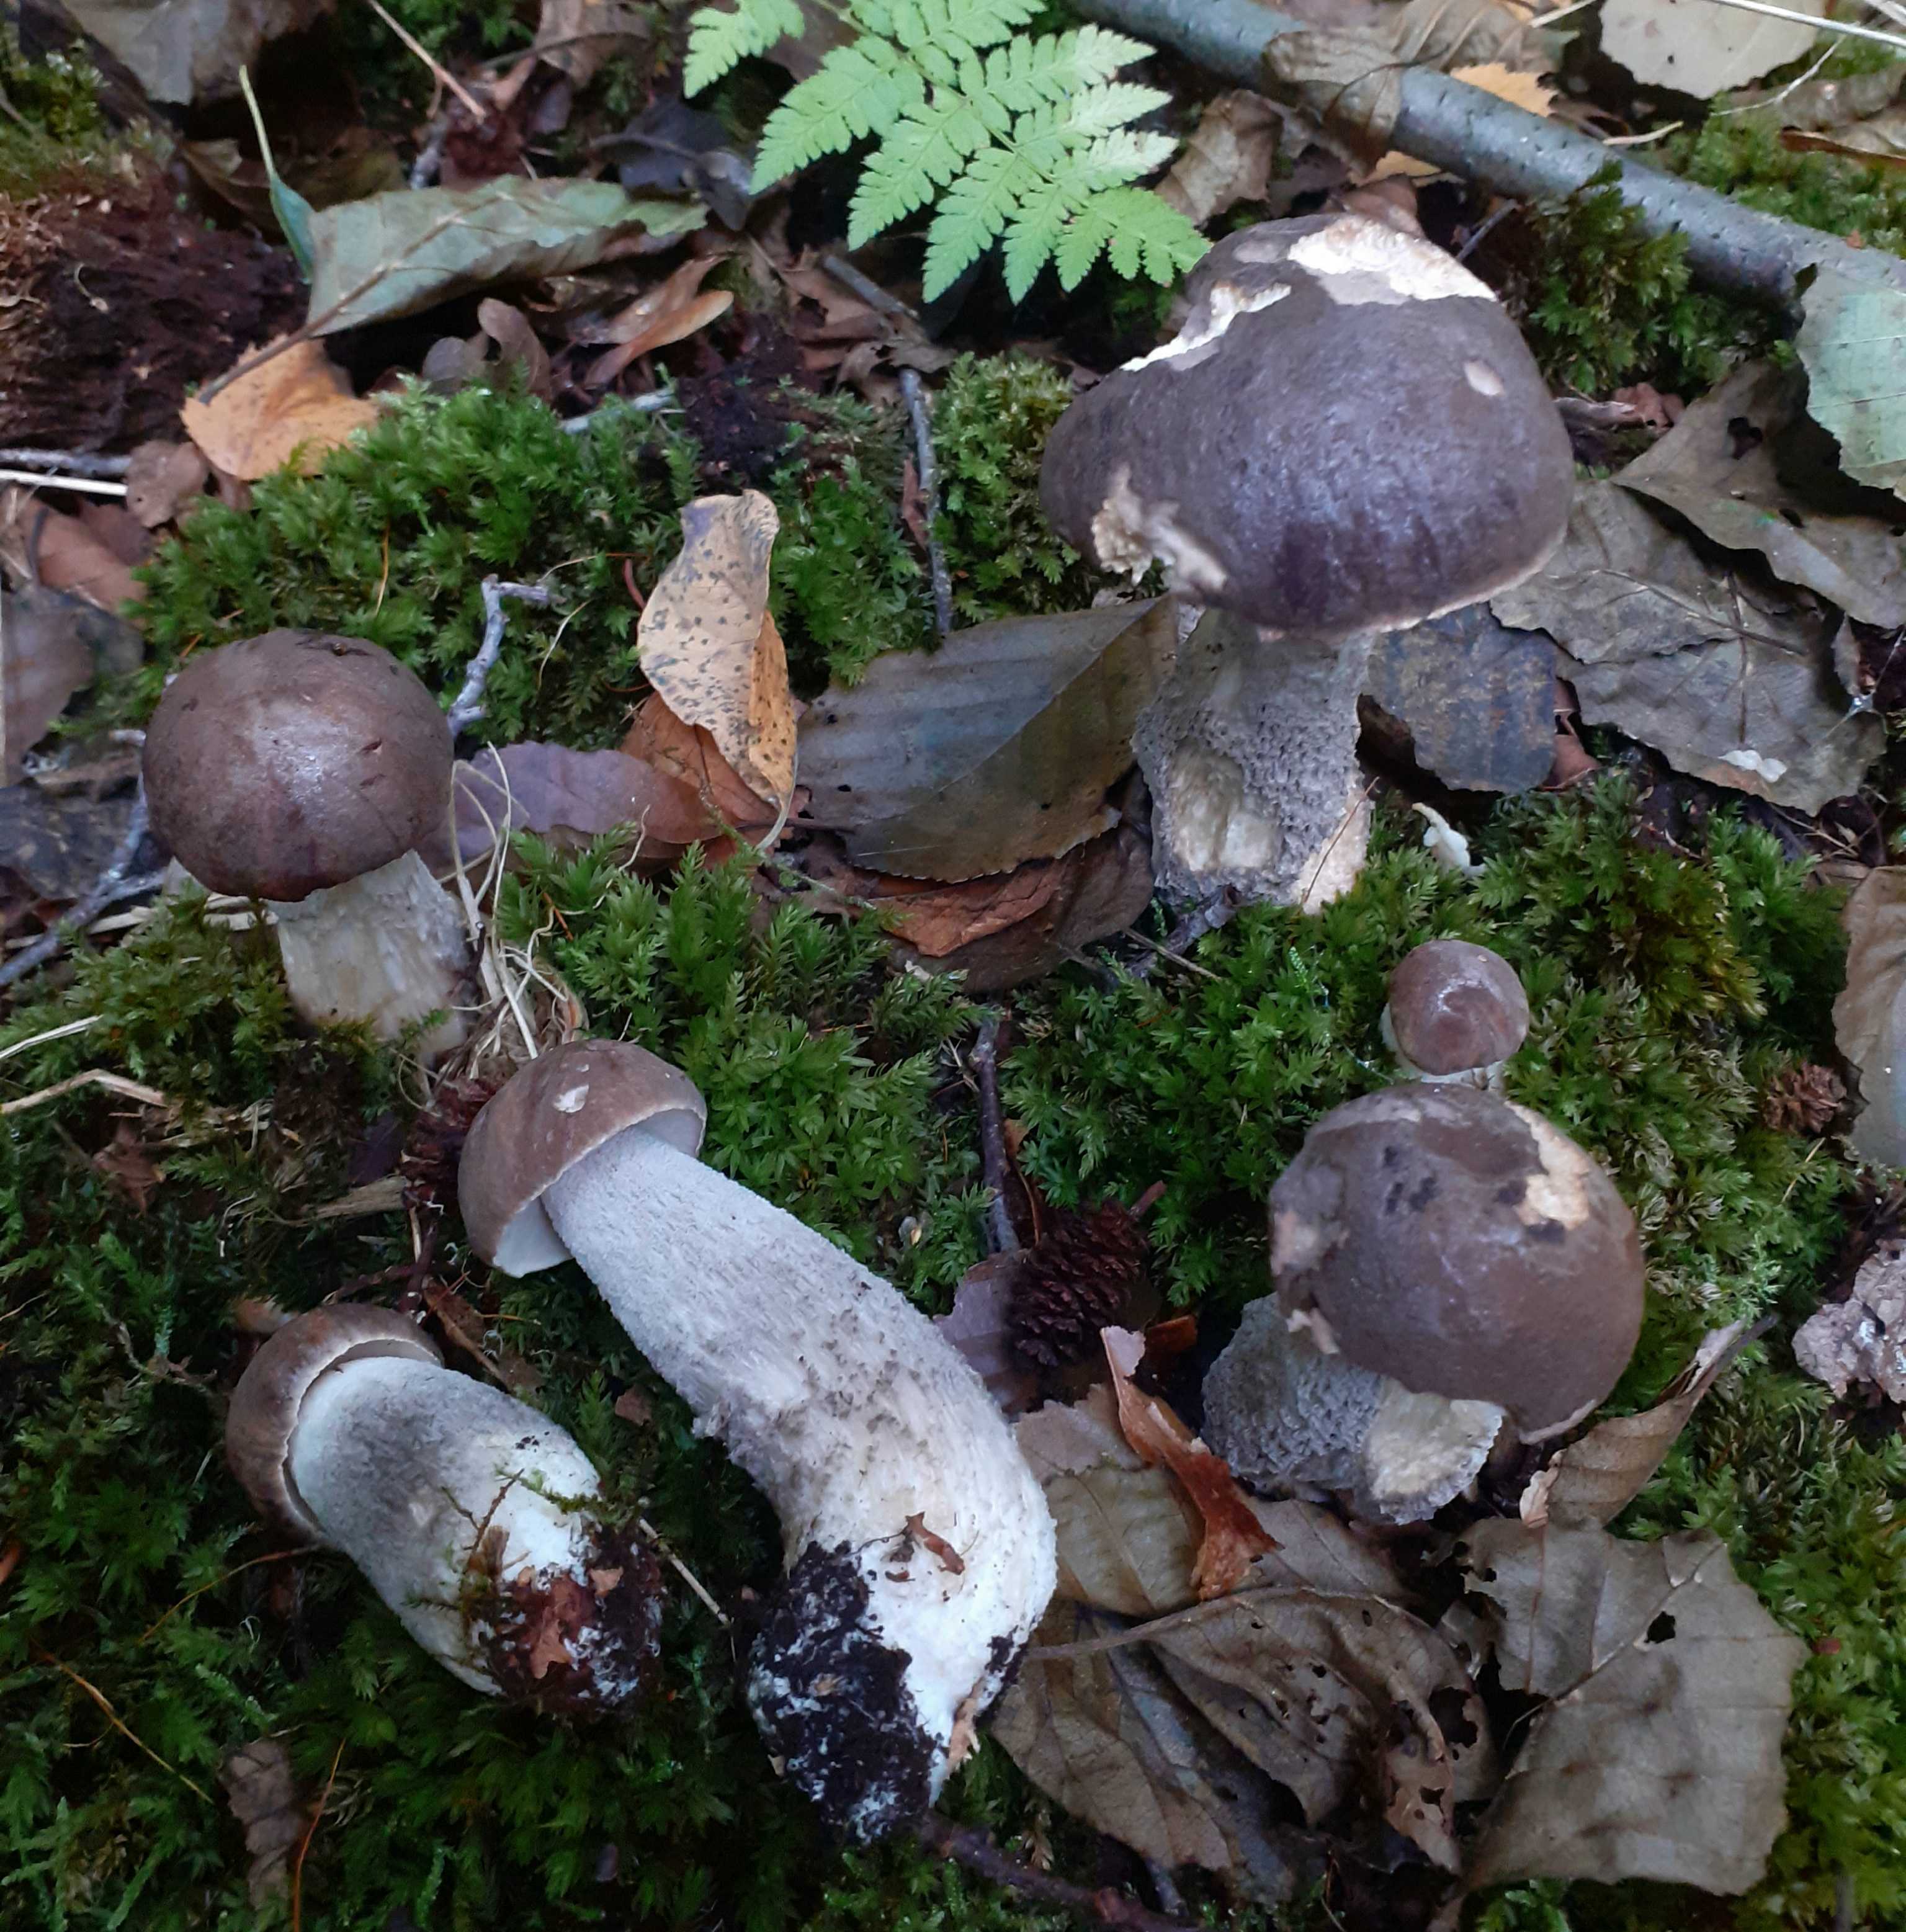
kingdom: Fungi
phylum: Basidiomycota
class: Agaricomycetes
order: Boletales
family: Boletaceae
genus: Leccinum
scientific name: Leccinum cyaneobasileucum
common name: almindelig skælrørhat
